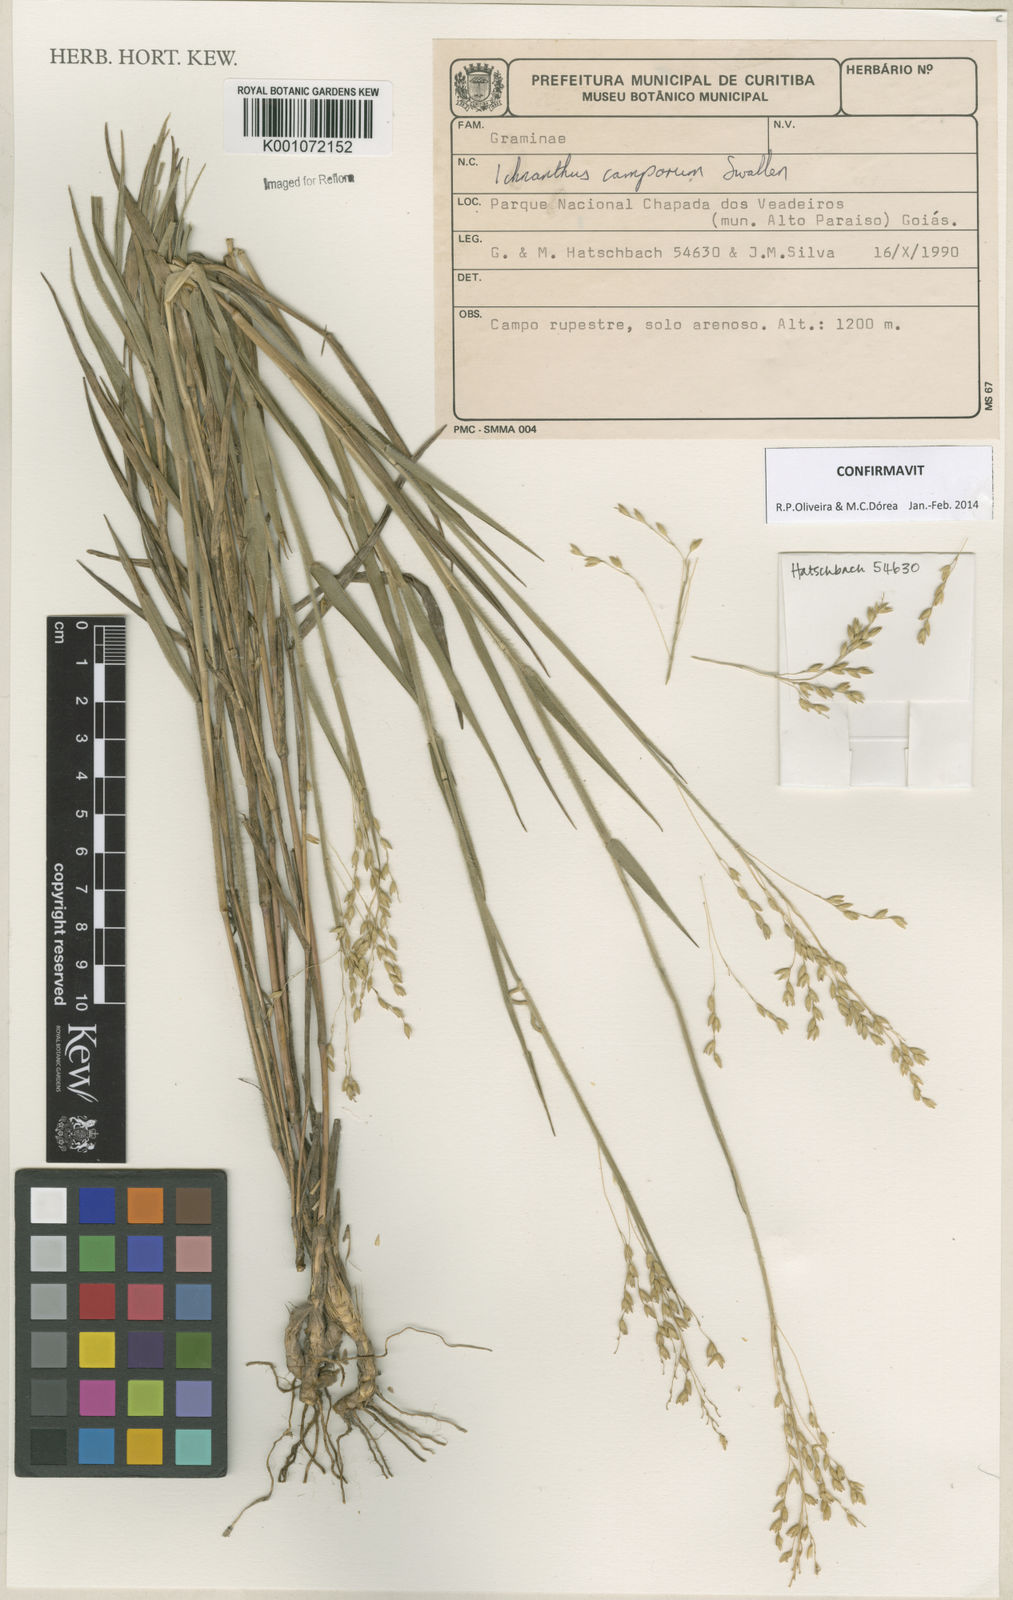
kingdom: Plantae
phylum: Tracheophyta
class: Liliopsida
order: Poales
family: Poaceae
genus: Oedochloa
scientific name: Oedochloa camporum
